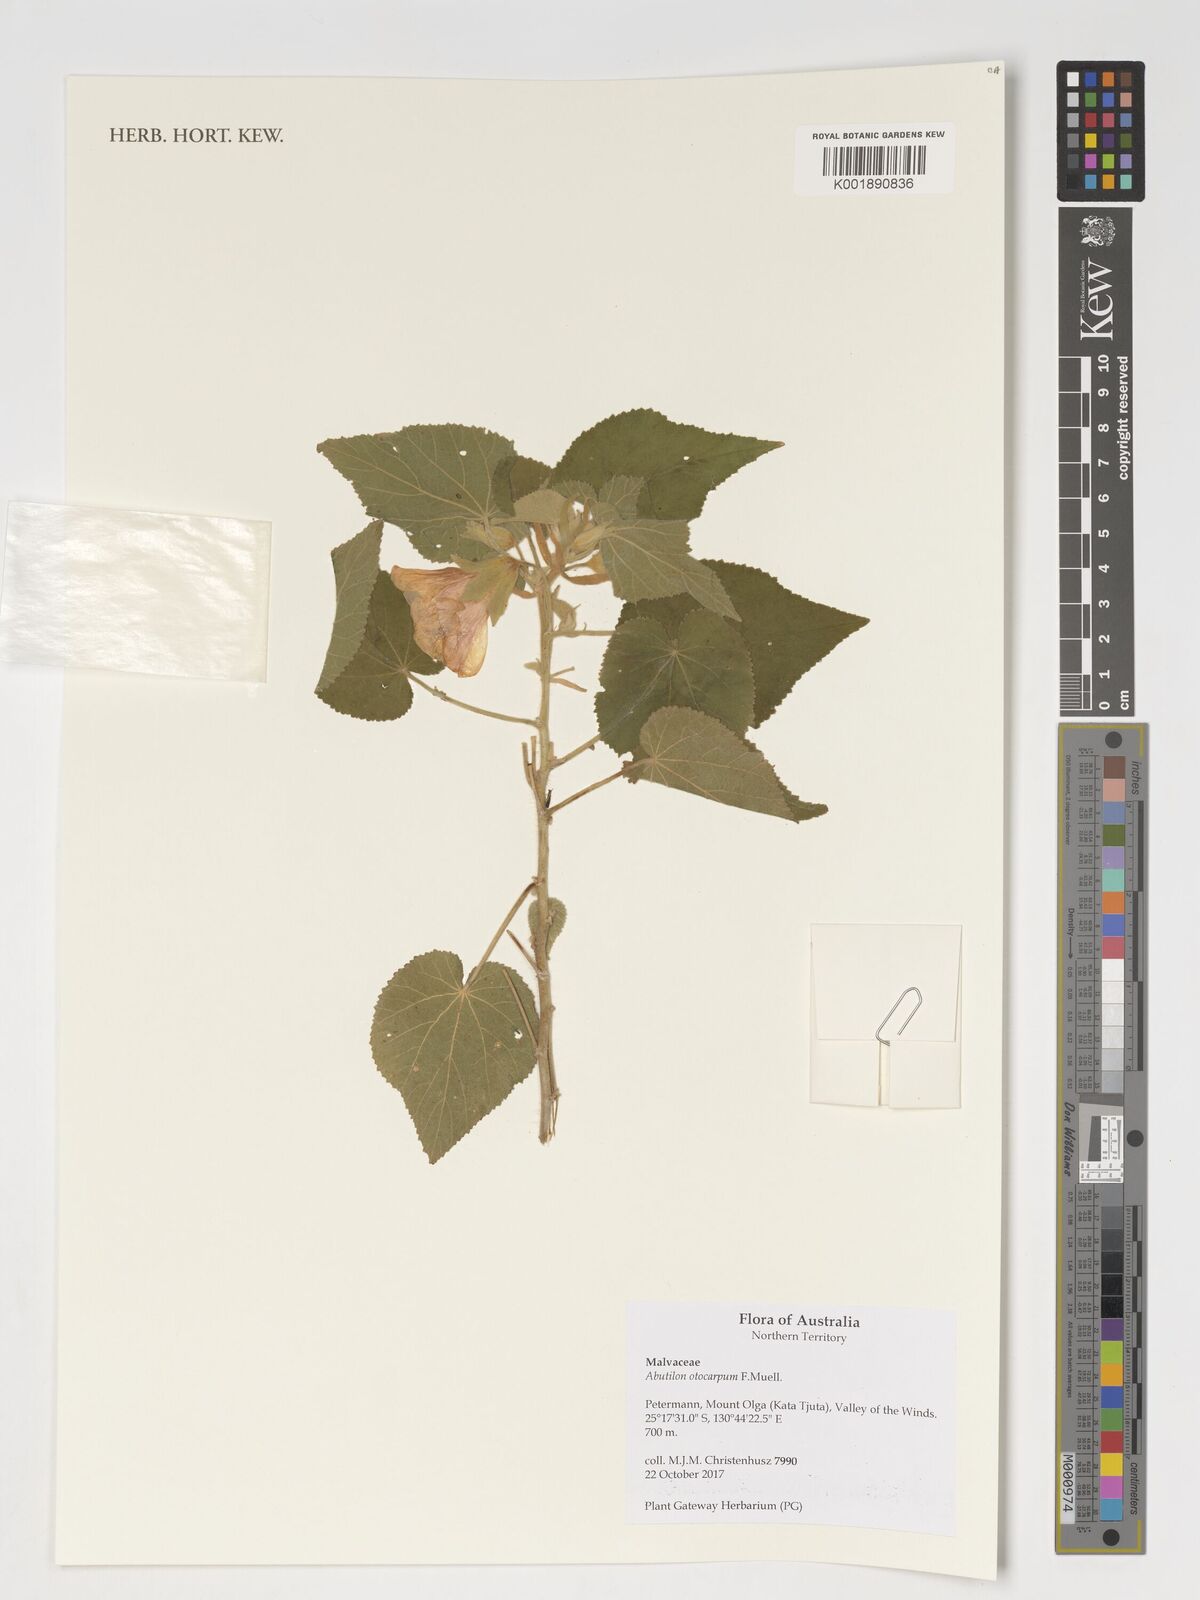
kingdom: Plantae
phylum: Tracheophyta
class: Magnoliopsida
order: Malvales
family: Malvaceae
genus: Abutilon
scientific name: Abutilon otocarpum
